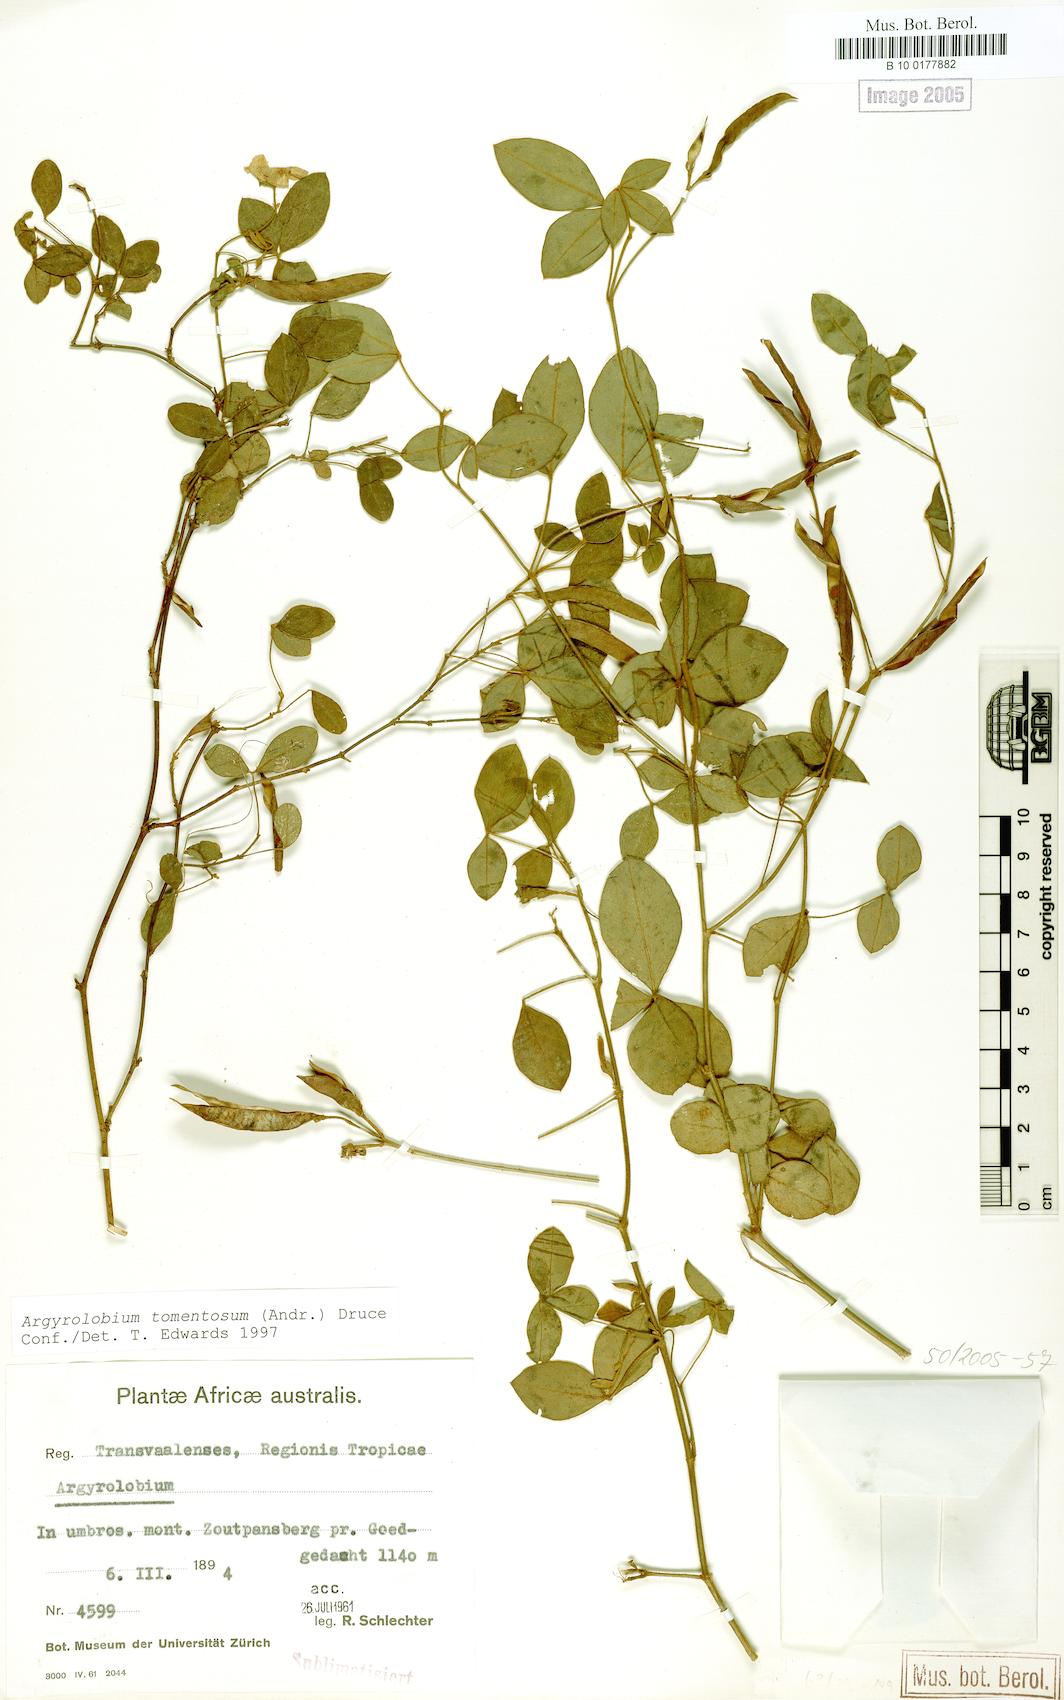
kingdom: Plantae
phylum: Tracheophyta
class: Magnoliopsida
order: Fabales
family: Fabaceae
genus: Argyrolobium
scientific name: Argyrolobium tomentosum
